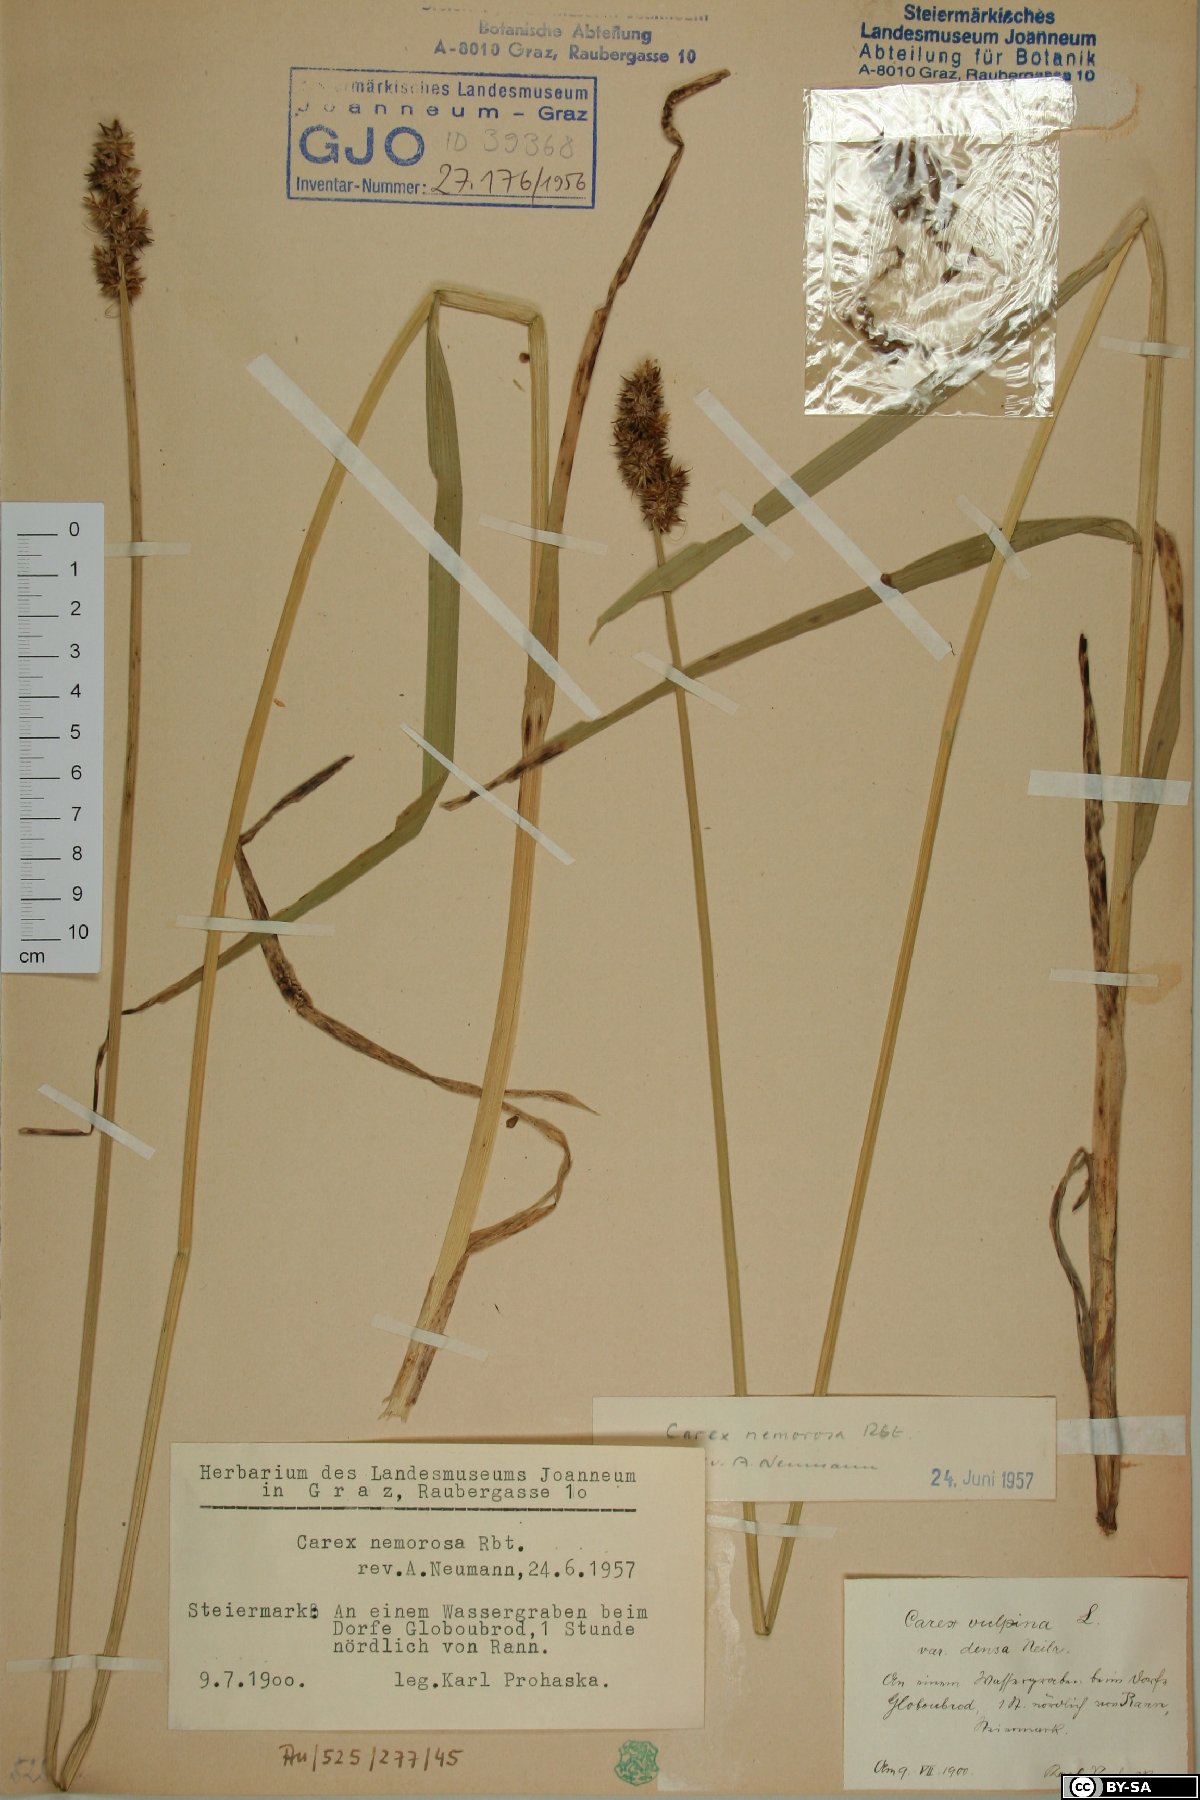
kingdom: Plantae
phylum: Tracheophyta
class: Liliopsida
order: Poales
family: Cyperaceae
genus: Carex
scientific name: Carex otrubae
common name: False fox-sedge
